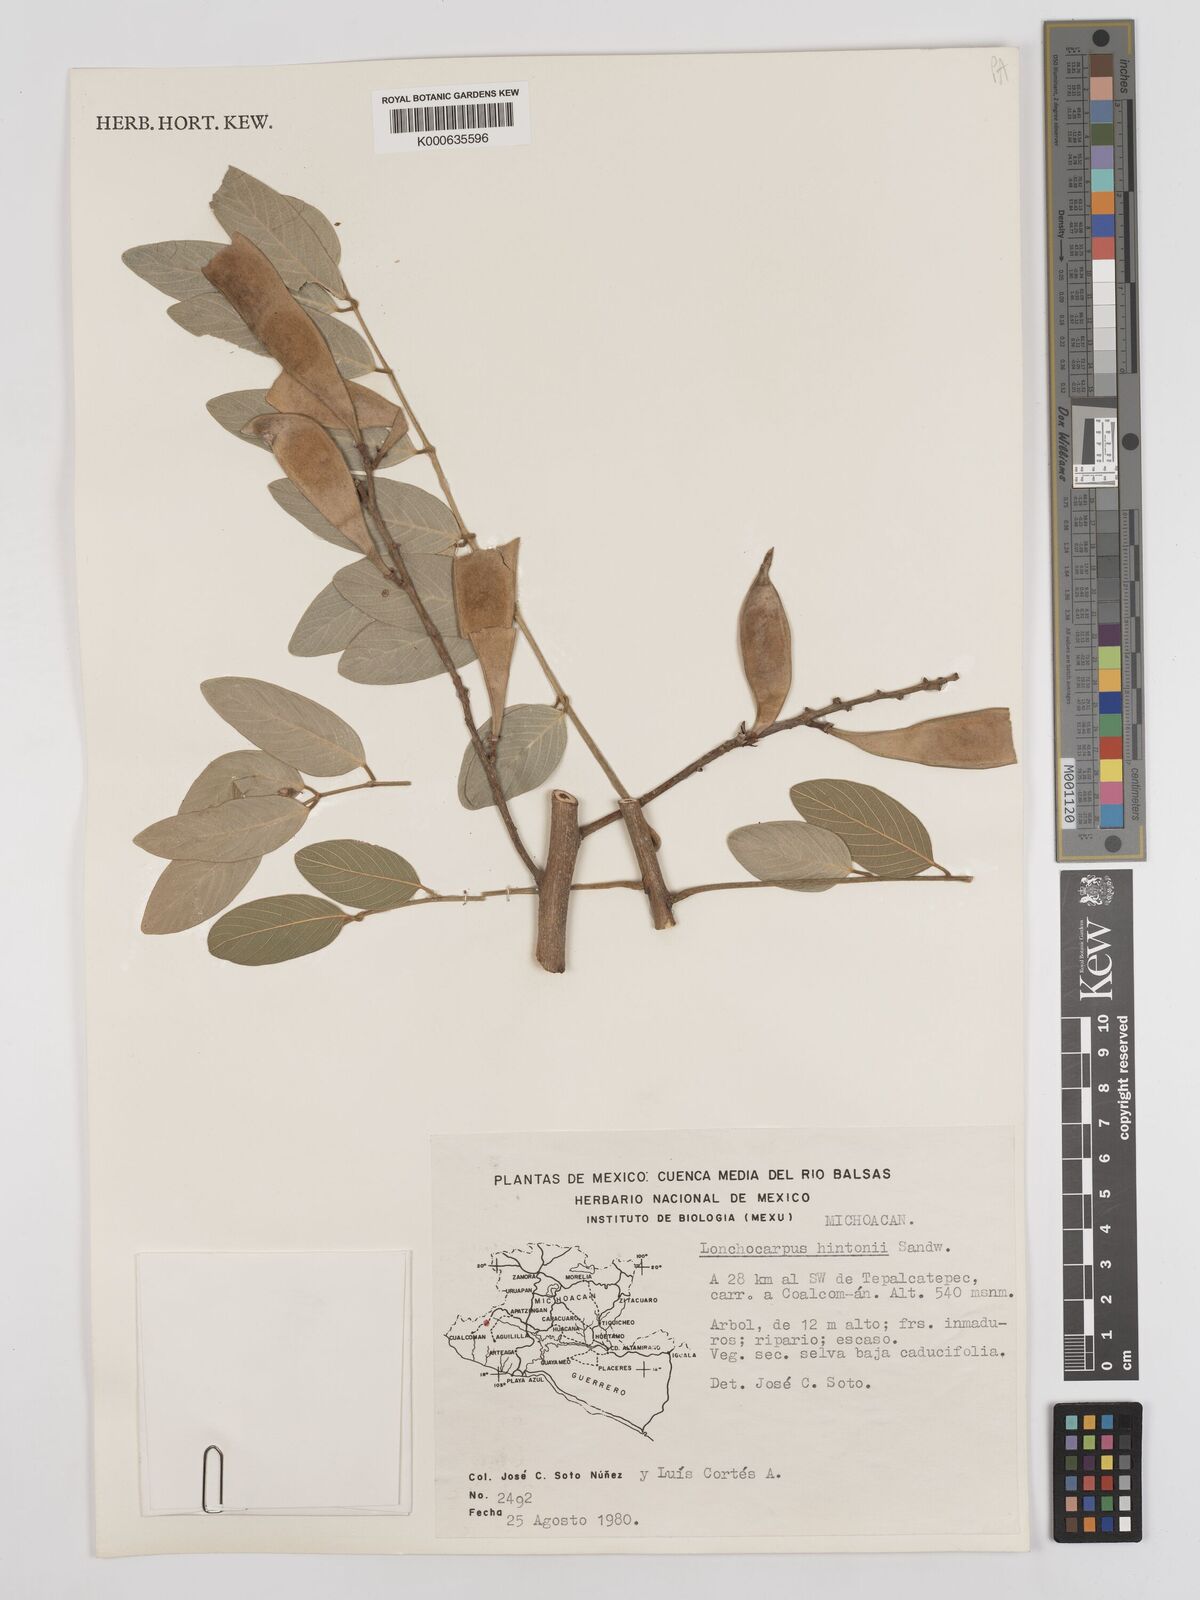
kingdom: Plantae
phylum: Tracheophyta
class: Magnoliopsida
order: Fabales
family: Fabaceae
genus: Lonchocarpus
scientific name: Lonchocarpus hintonii
